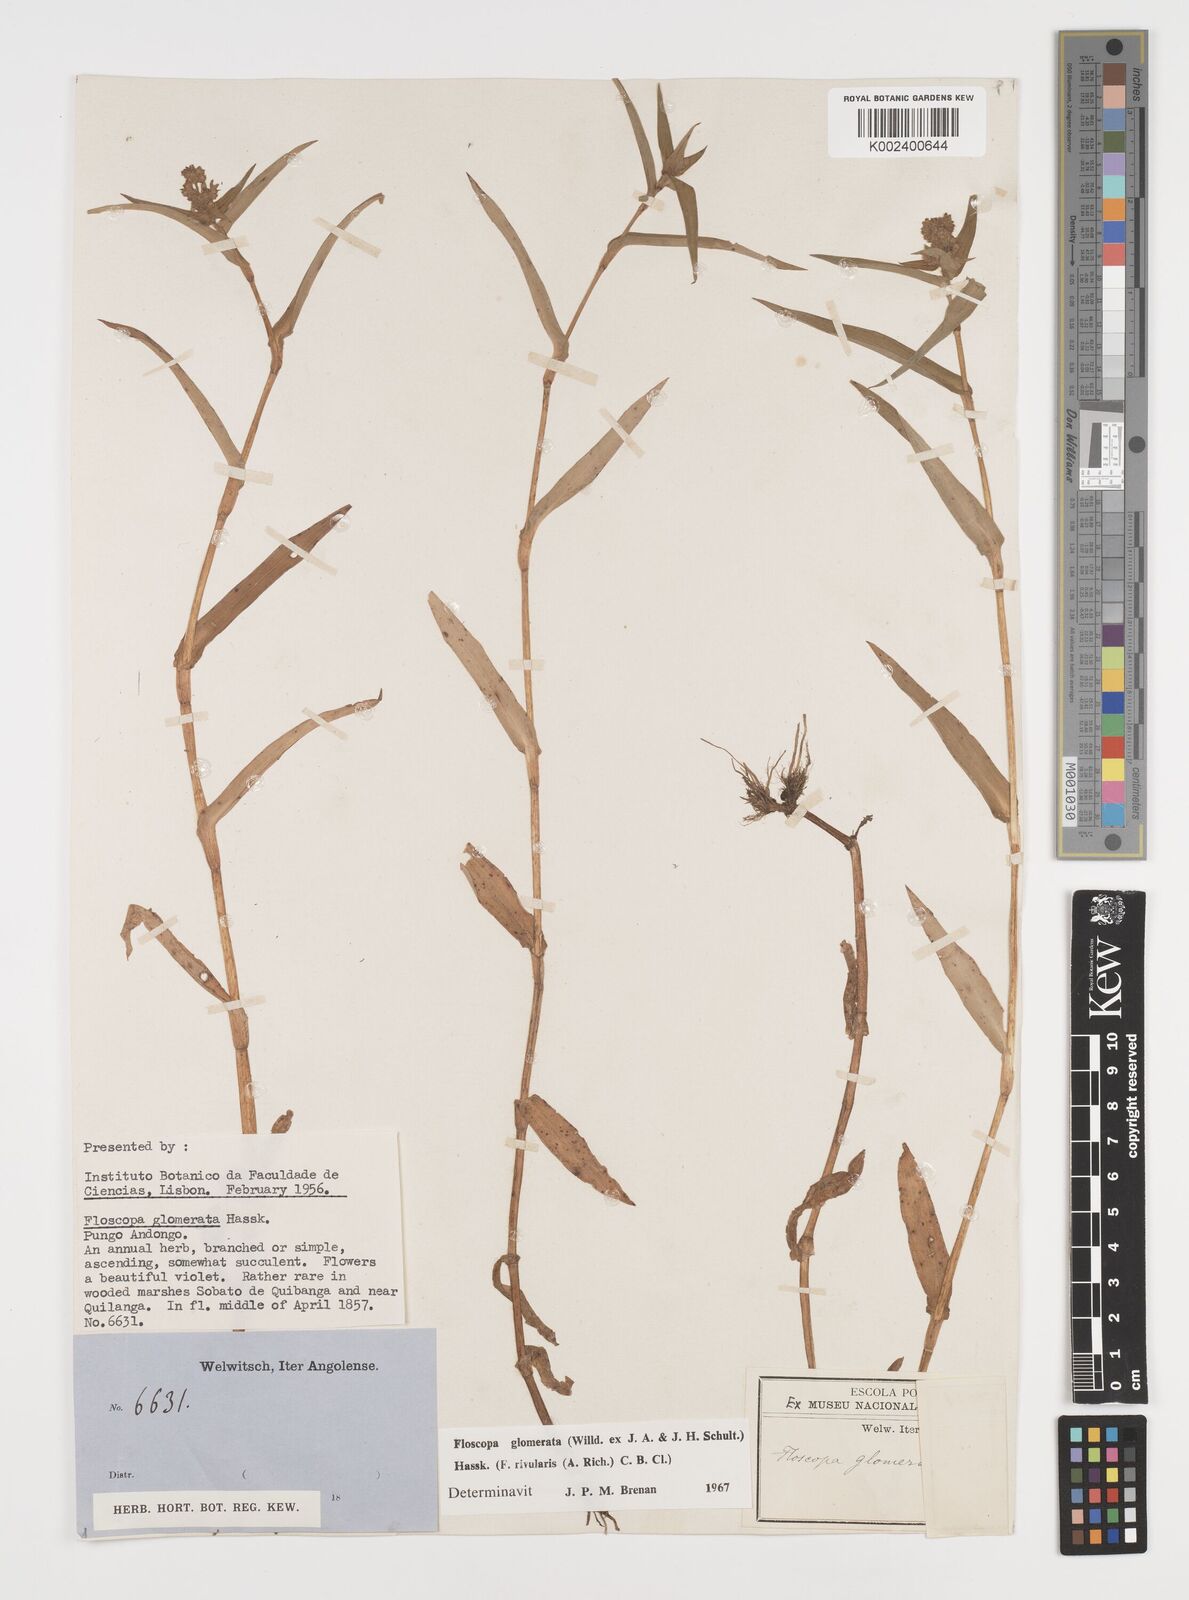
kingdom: Plantae
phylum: Tracheophyta
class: Liliopsida
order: Commelinales
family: Commelinaceae
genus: Floscopa
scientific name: Floscopa glomerata
